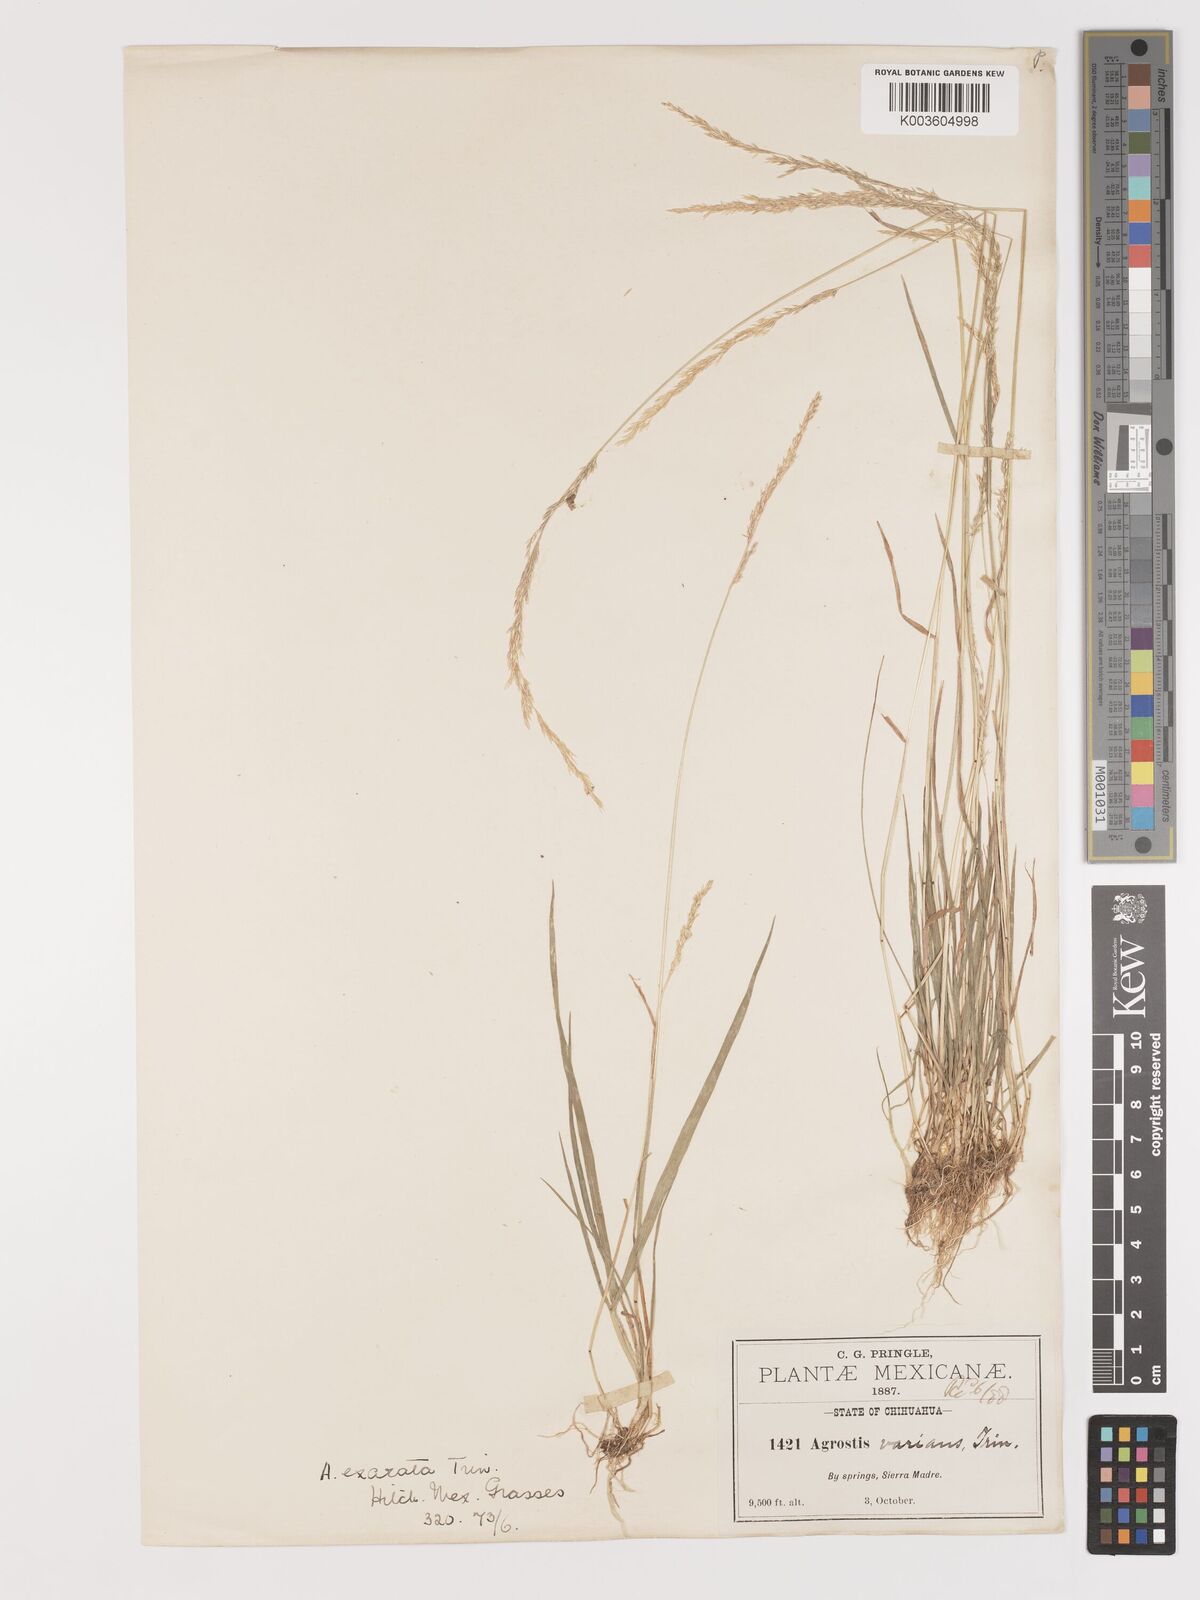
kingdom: Plantae
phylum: Tracheophyta
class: Liliopsida
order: Poales
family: Poaceae
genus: Agrostis
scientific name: Agrostis exarata
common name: Spike bent
